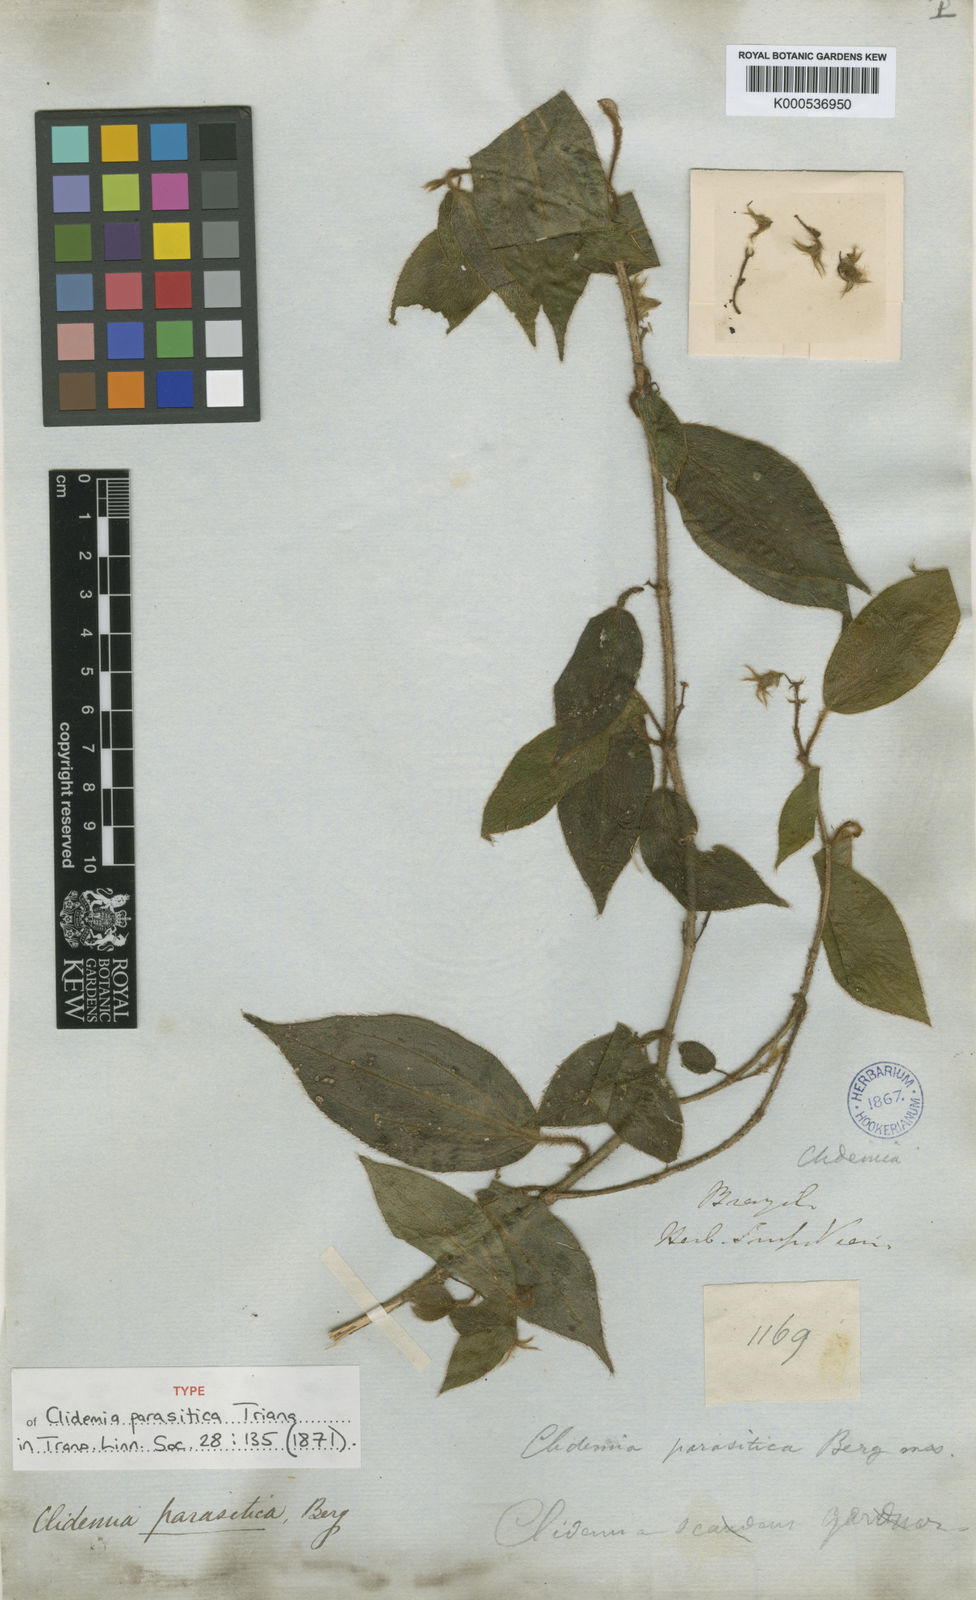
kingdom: Plantae
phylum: Tracheophyta
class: Magnoliopsida
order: Myrtales
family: Melastomataceae
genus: Miconia
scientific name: Miconia parasitica
